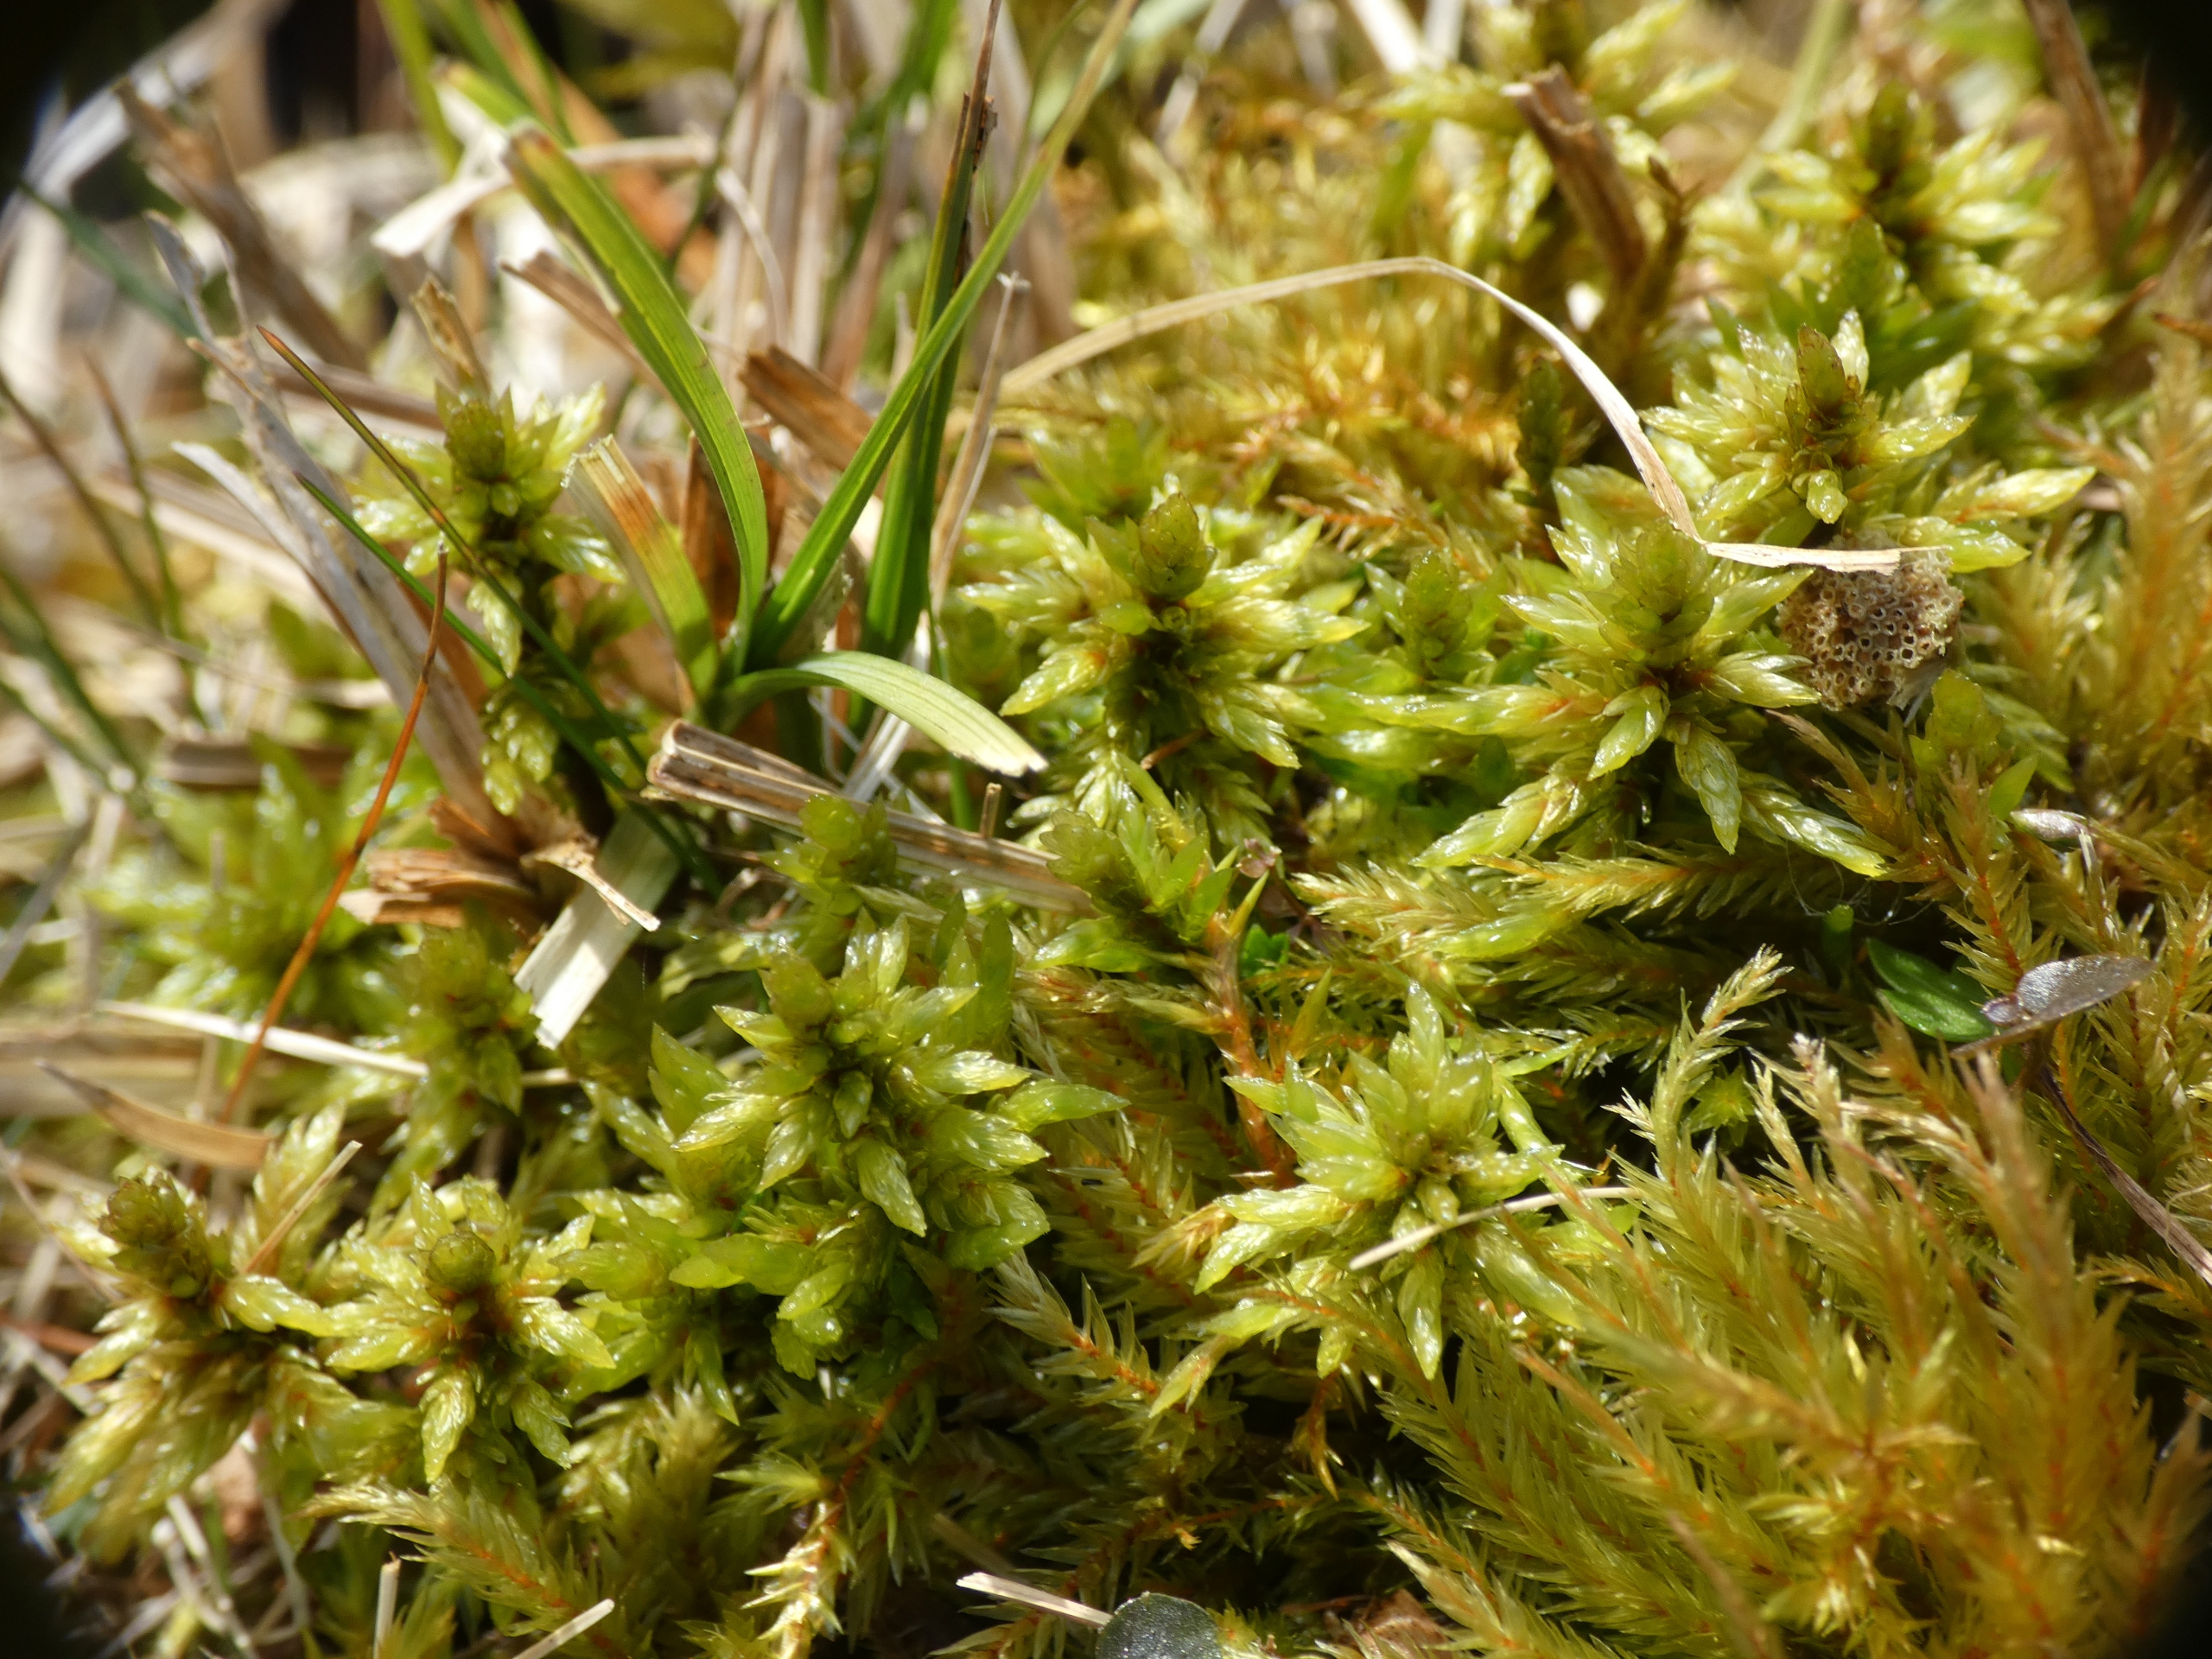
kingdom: Plantae
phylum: Bryophyta
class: Bryopsida
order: Hypnales
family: Climaciaceae
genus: Climacium
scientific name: Climacium dendroides
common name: Stor engkost
